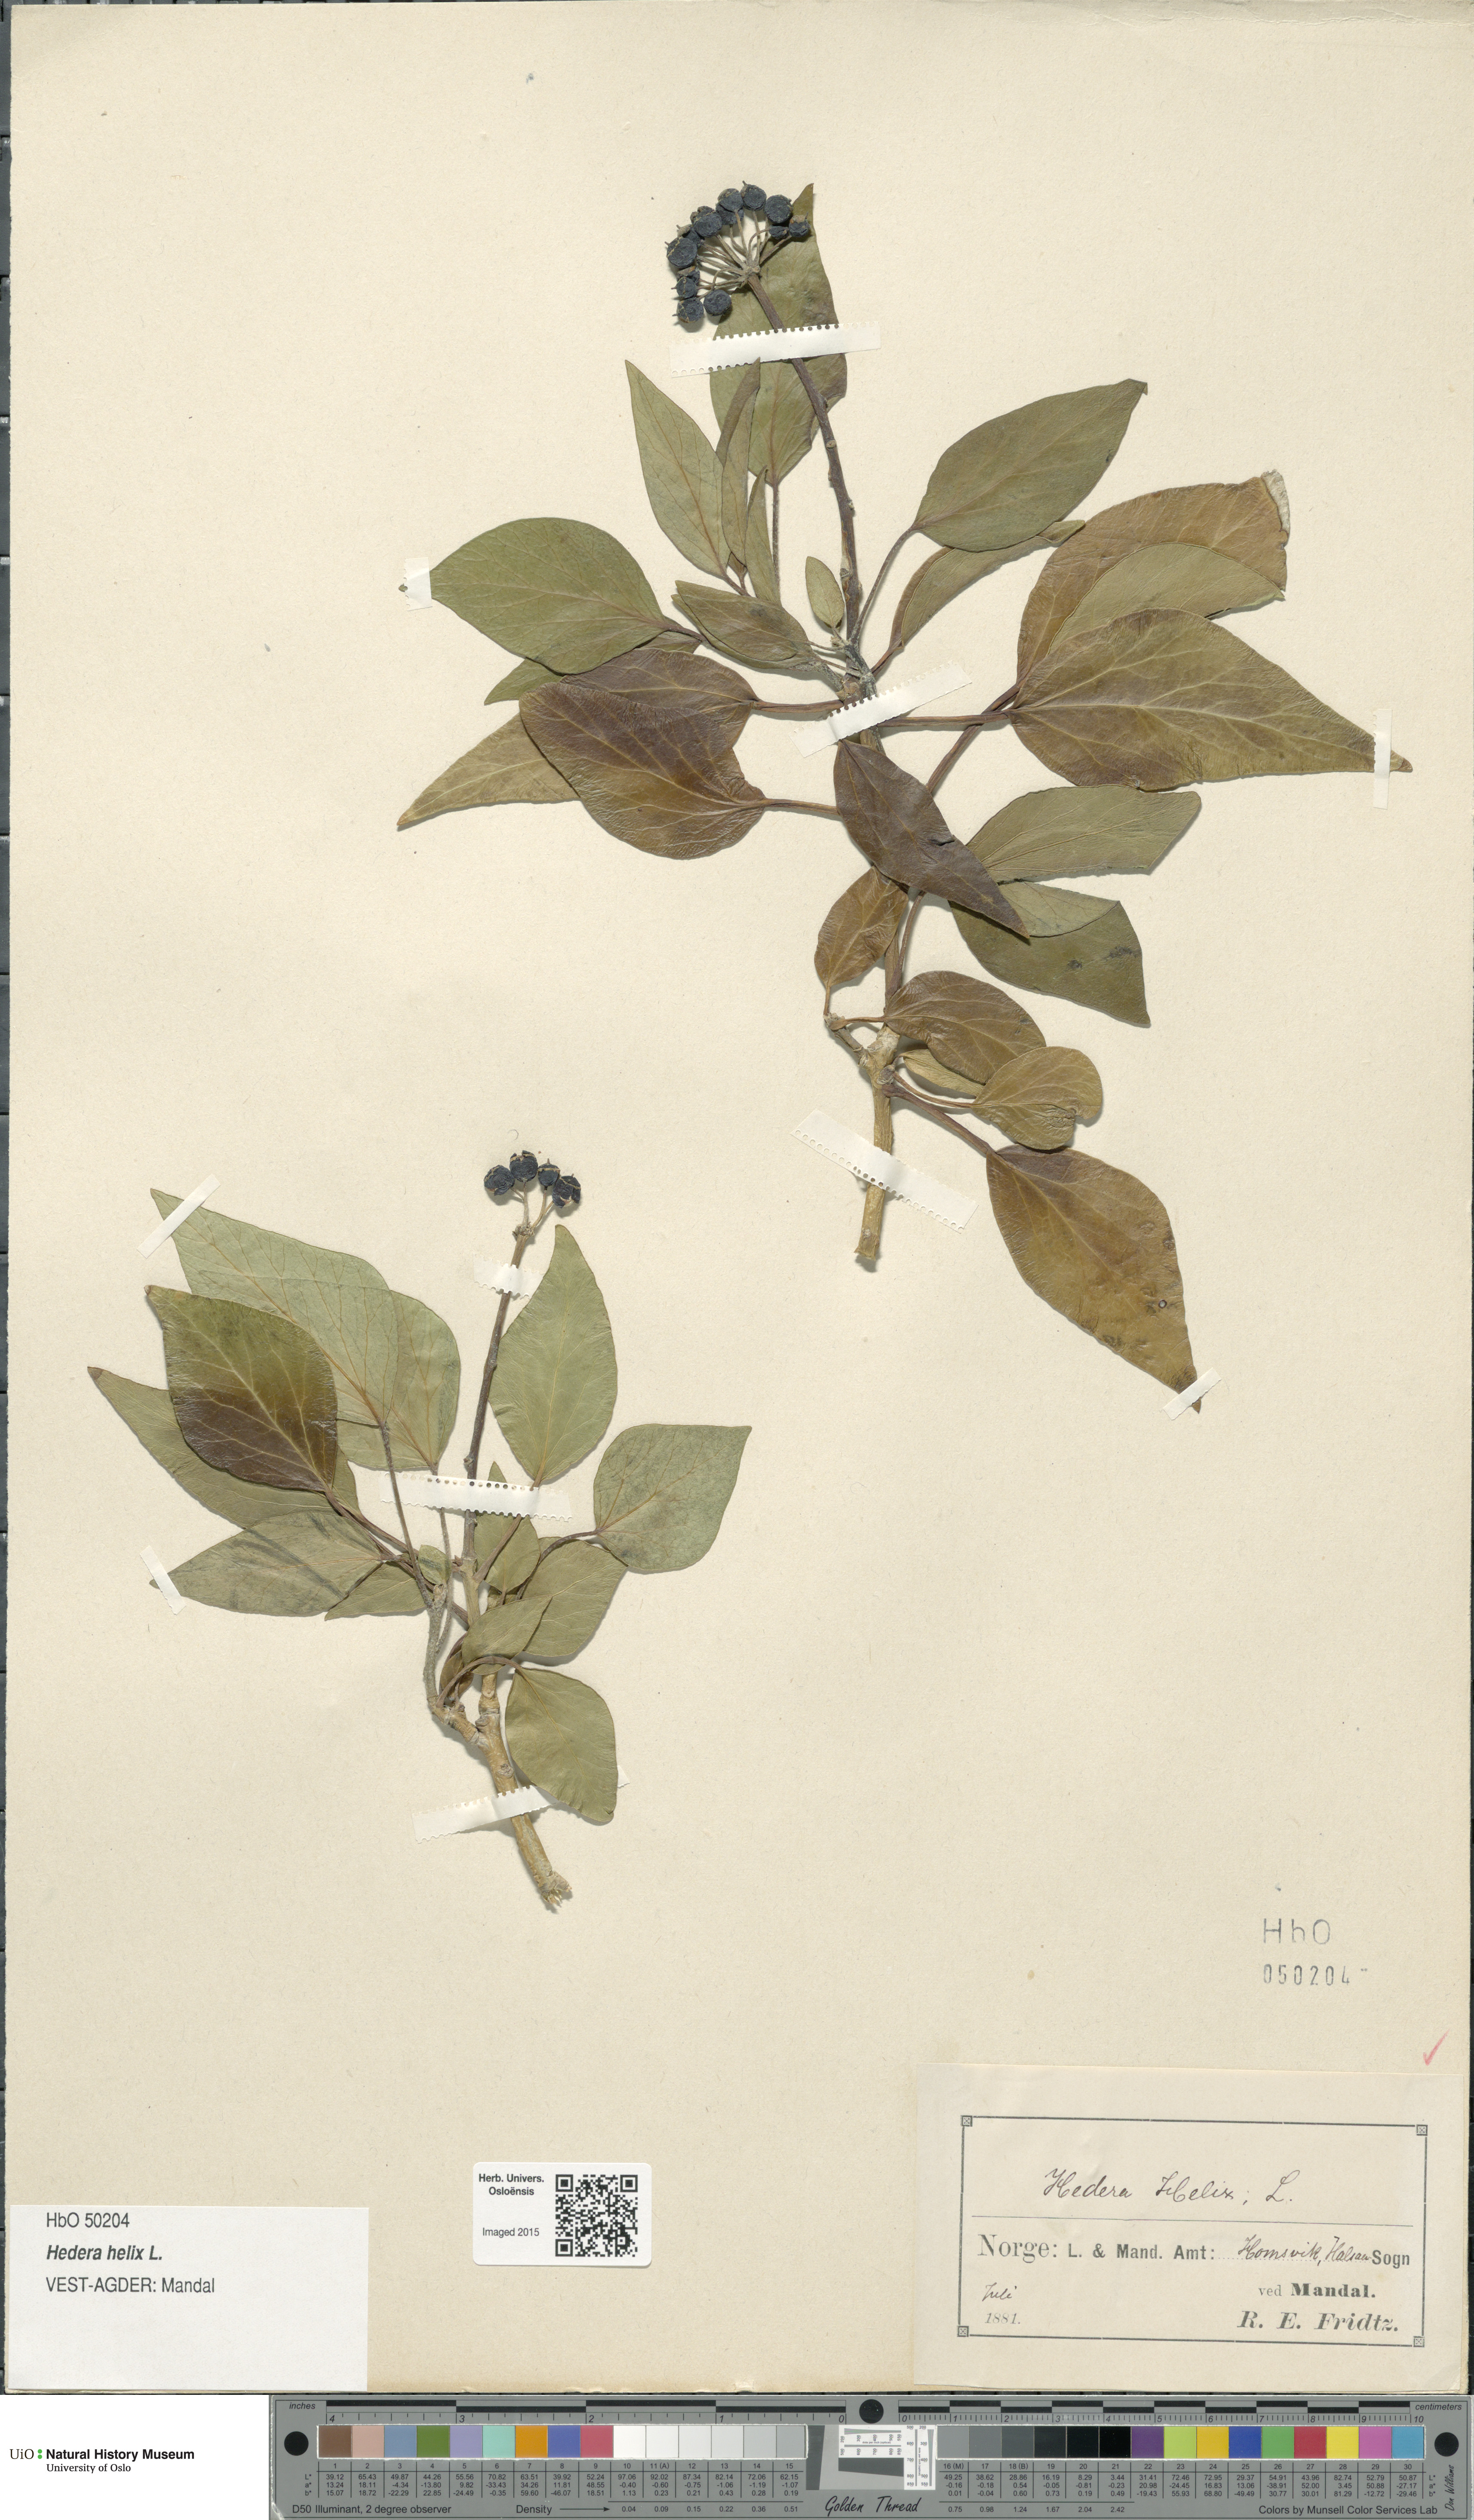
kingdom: Plantae
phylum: Tracheophyta
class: Magnoliopsida
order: Apiales
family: Araliaceae
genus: Hedera
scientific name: Hedera helix
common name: Ivy
